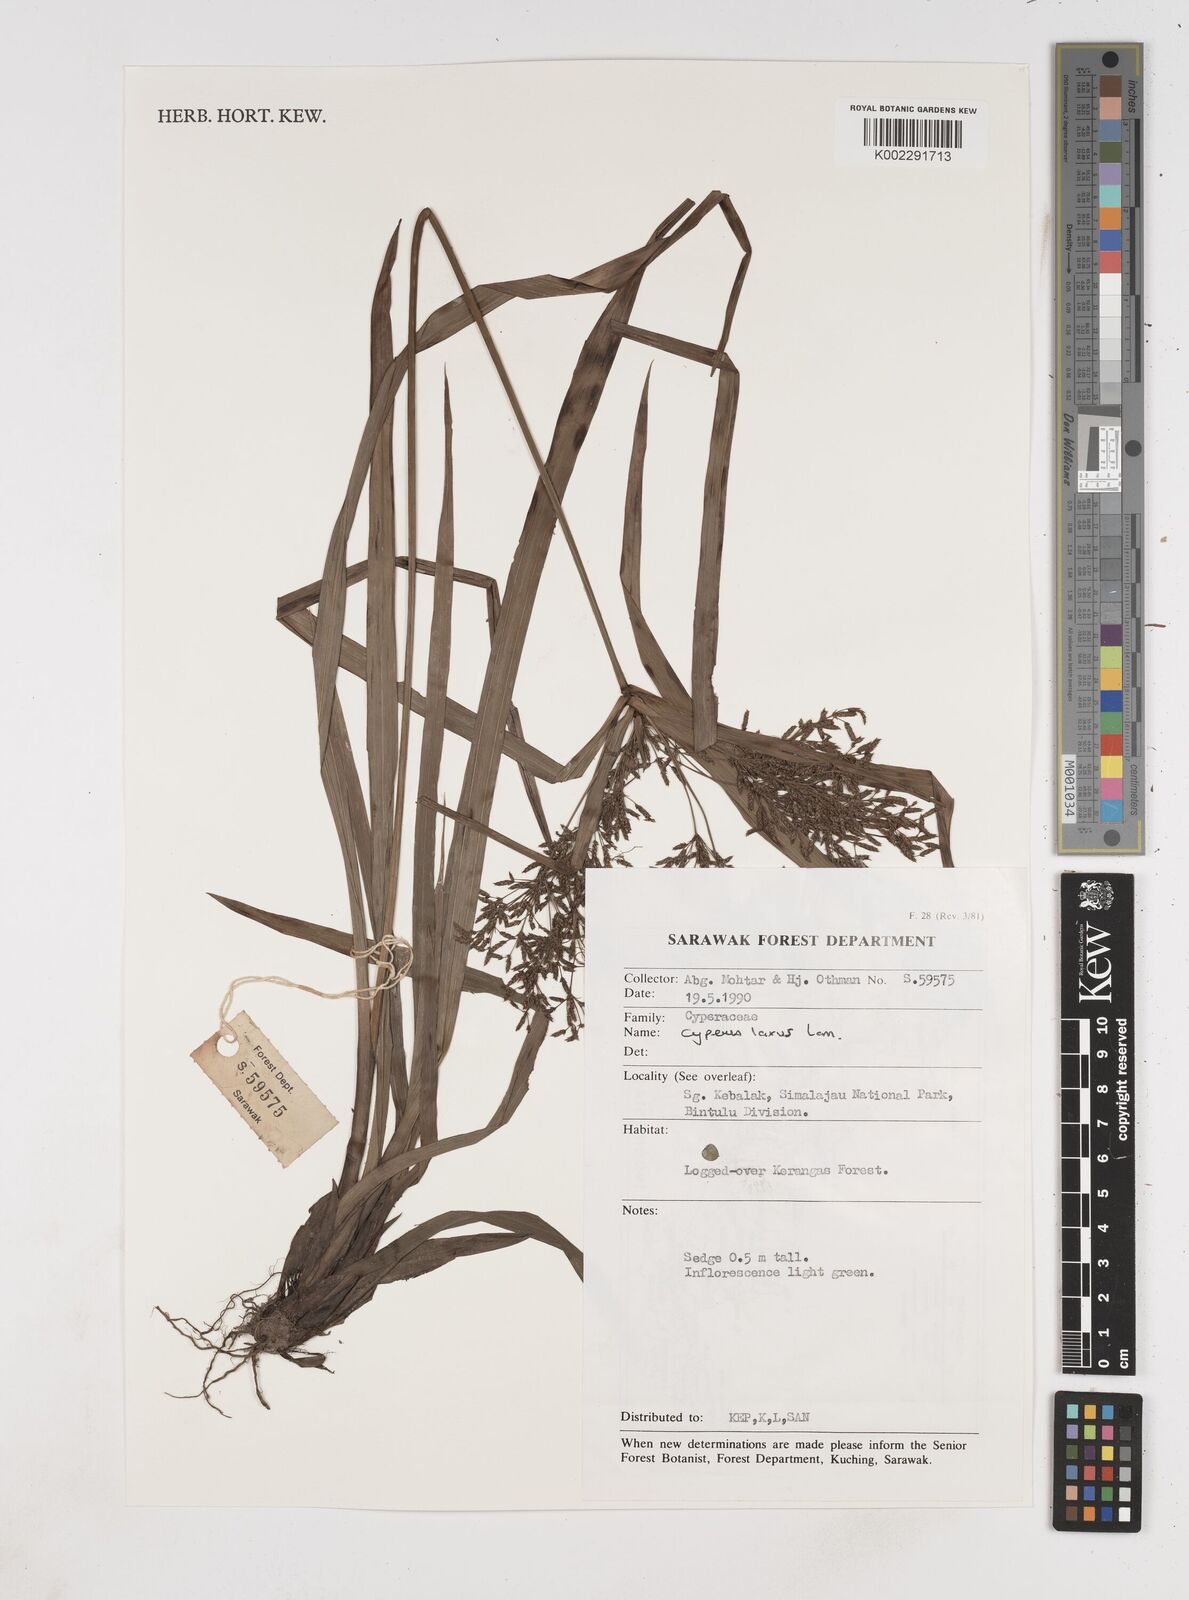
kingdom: Plantae
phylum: Tracheophyta
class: Liliopsida
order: Poales
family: Cyperaceae
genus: Cyperus
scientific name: Cyperus diffusus
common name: Dwarf umbrella grass
